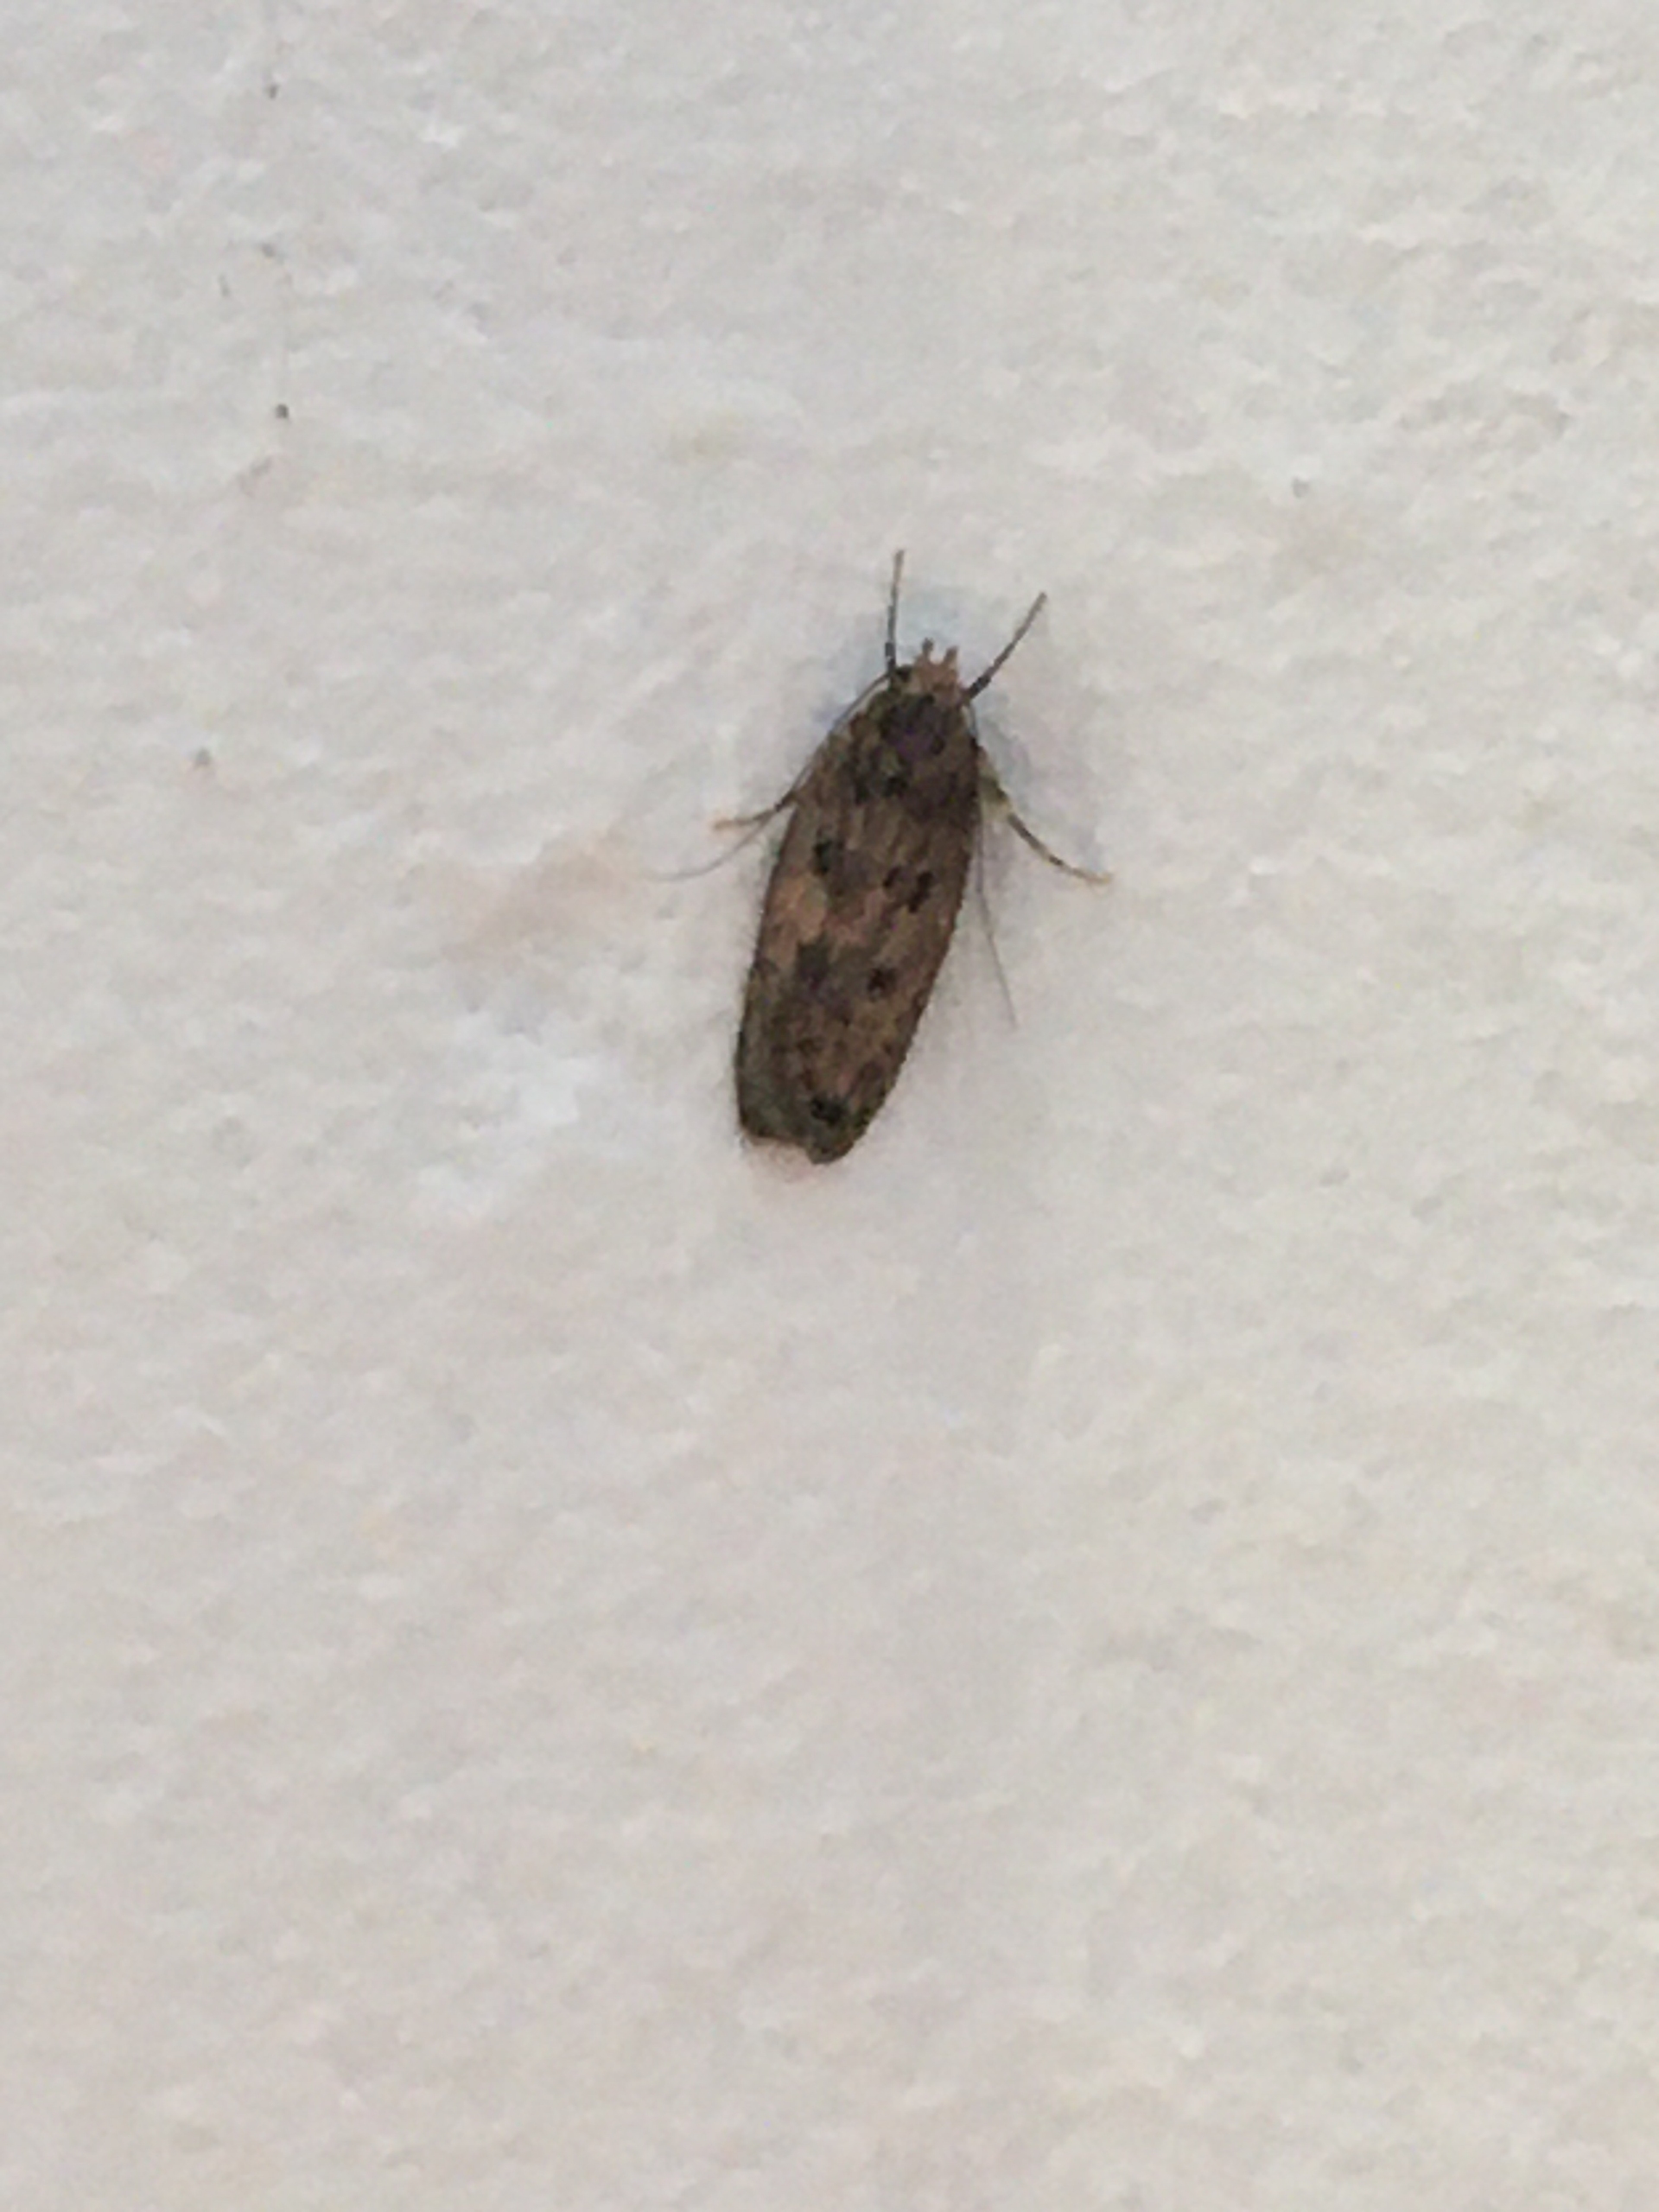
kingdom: Animalia
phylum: Arthropoda
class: Insecta
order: Lepidoptera
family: Oecophoridae
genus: Hofmannophila
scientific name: Hofmannophila pseudospretella
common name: Frømøl
